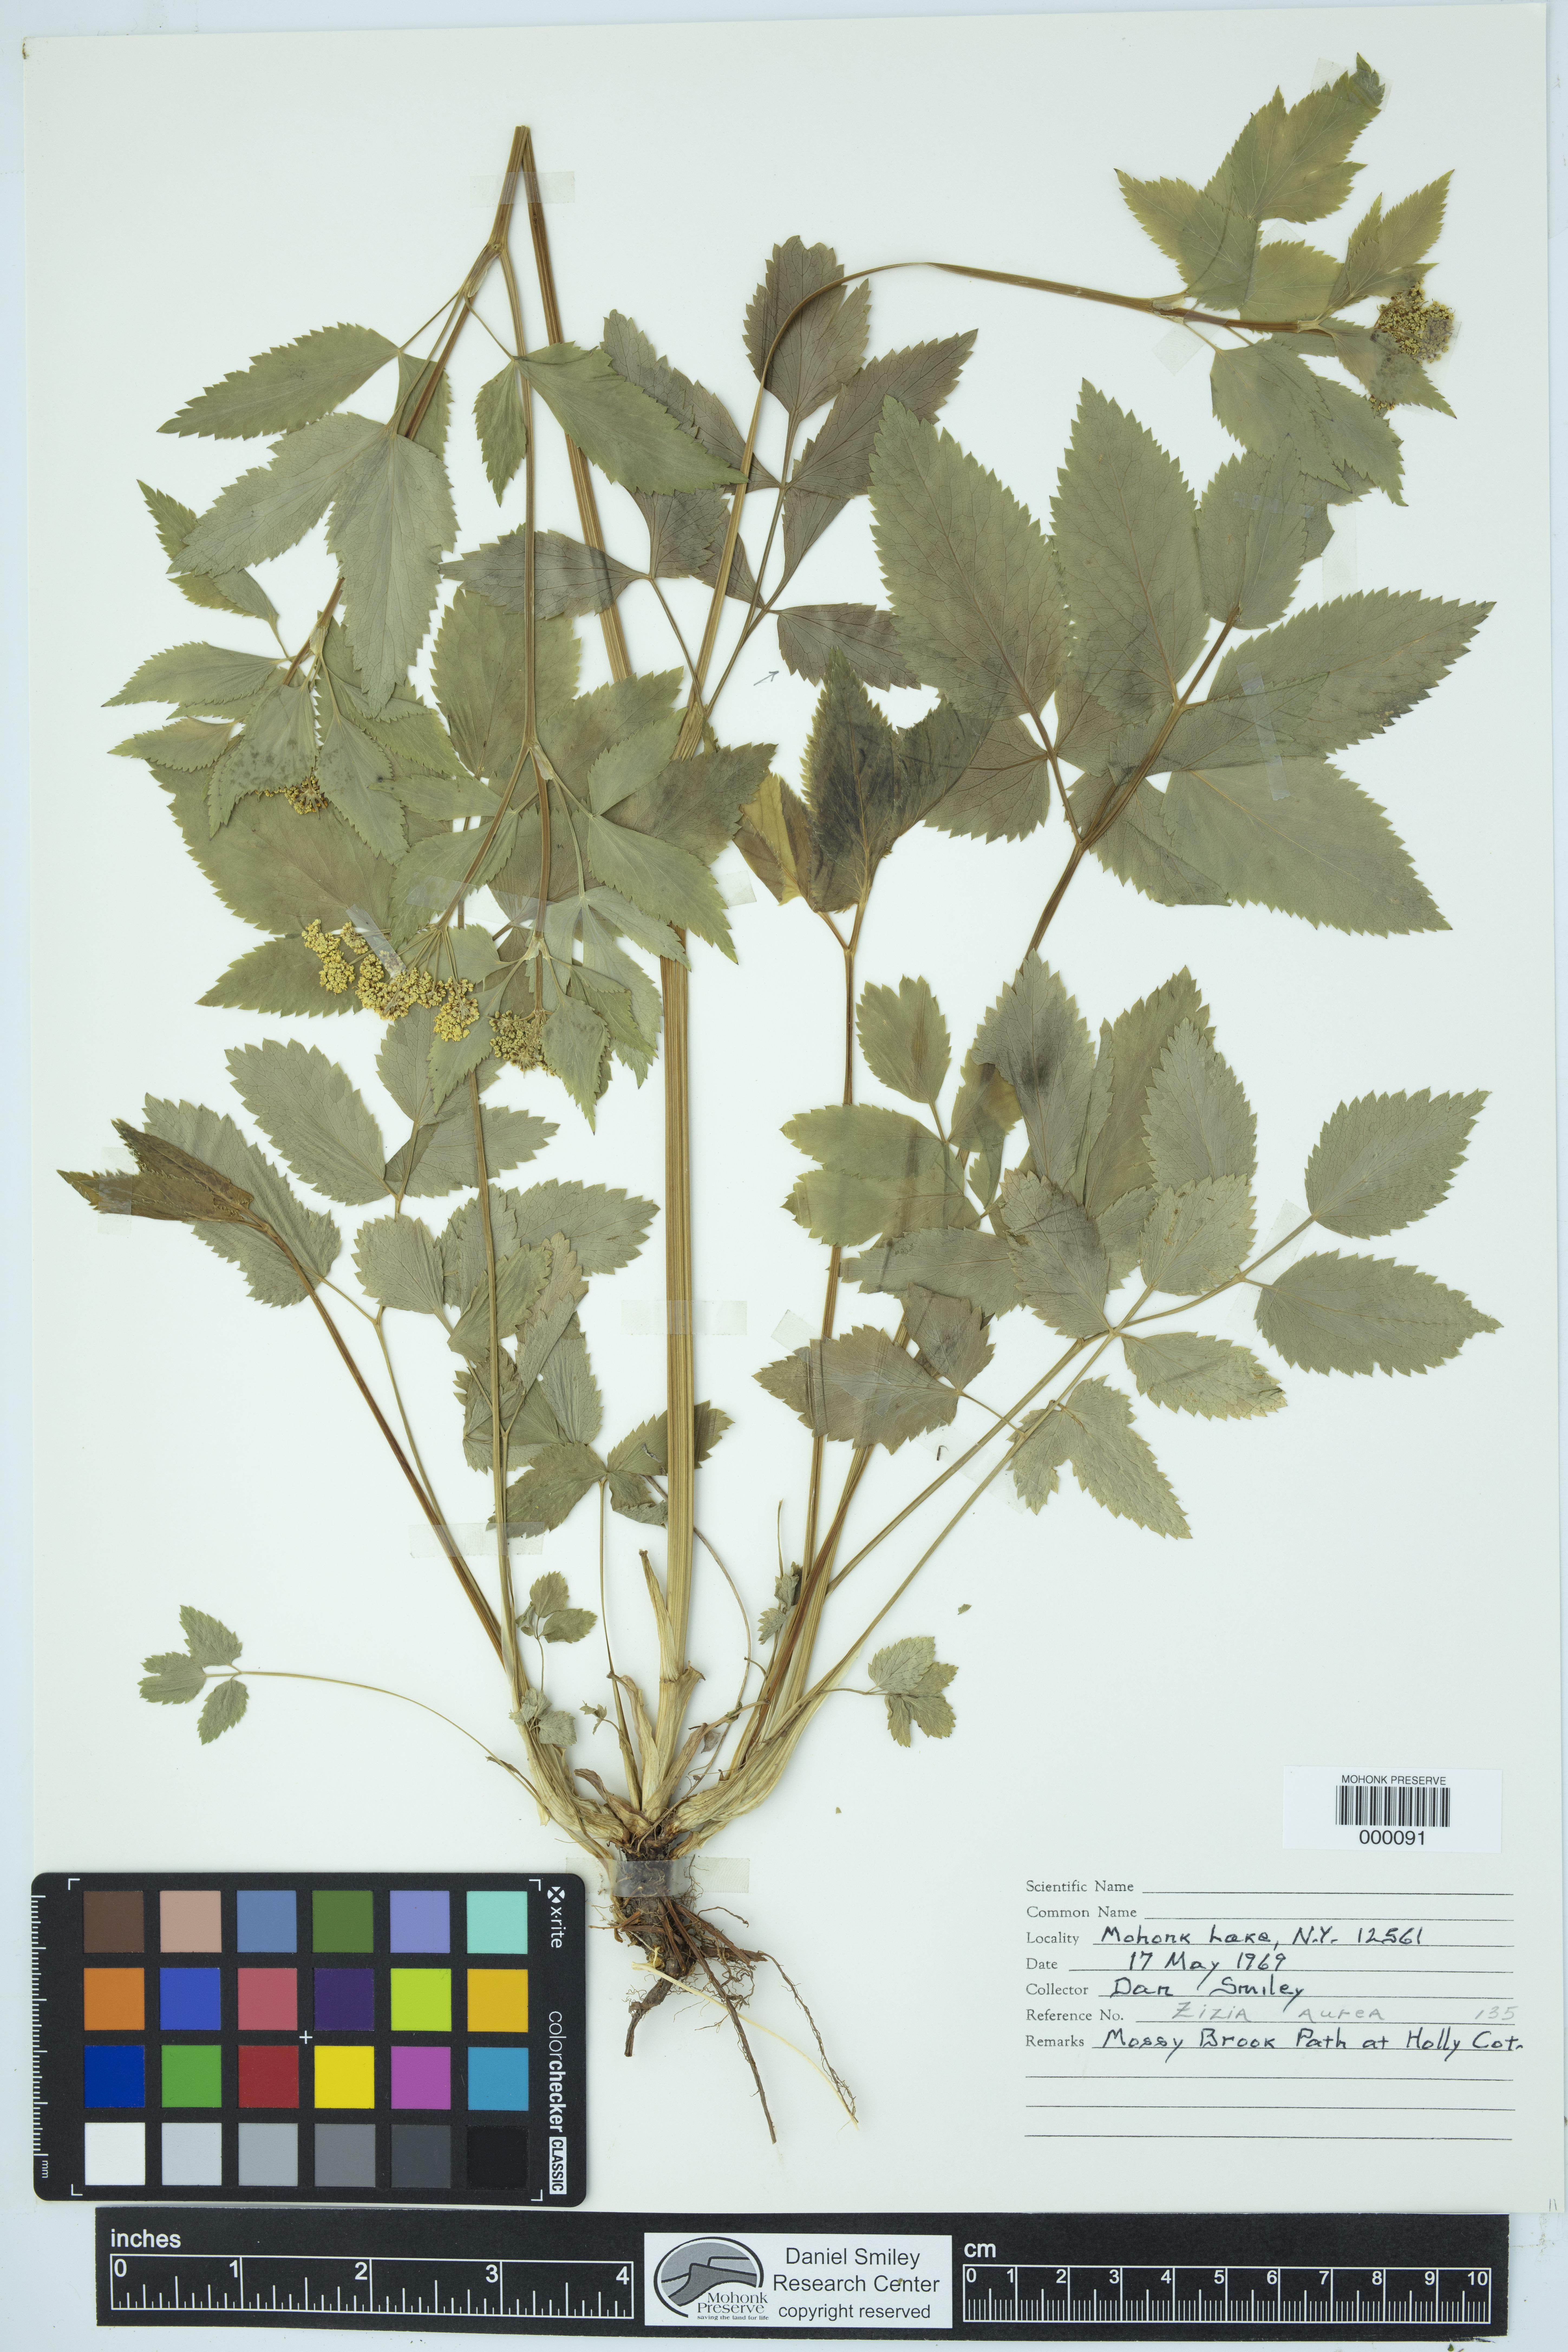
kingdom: Plantae
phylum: Tracheophyta
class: Magnoliopsida
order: Apiales
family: Apiaceae
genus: Zizia
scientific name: Zizia aurea
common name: Golden alexanders
